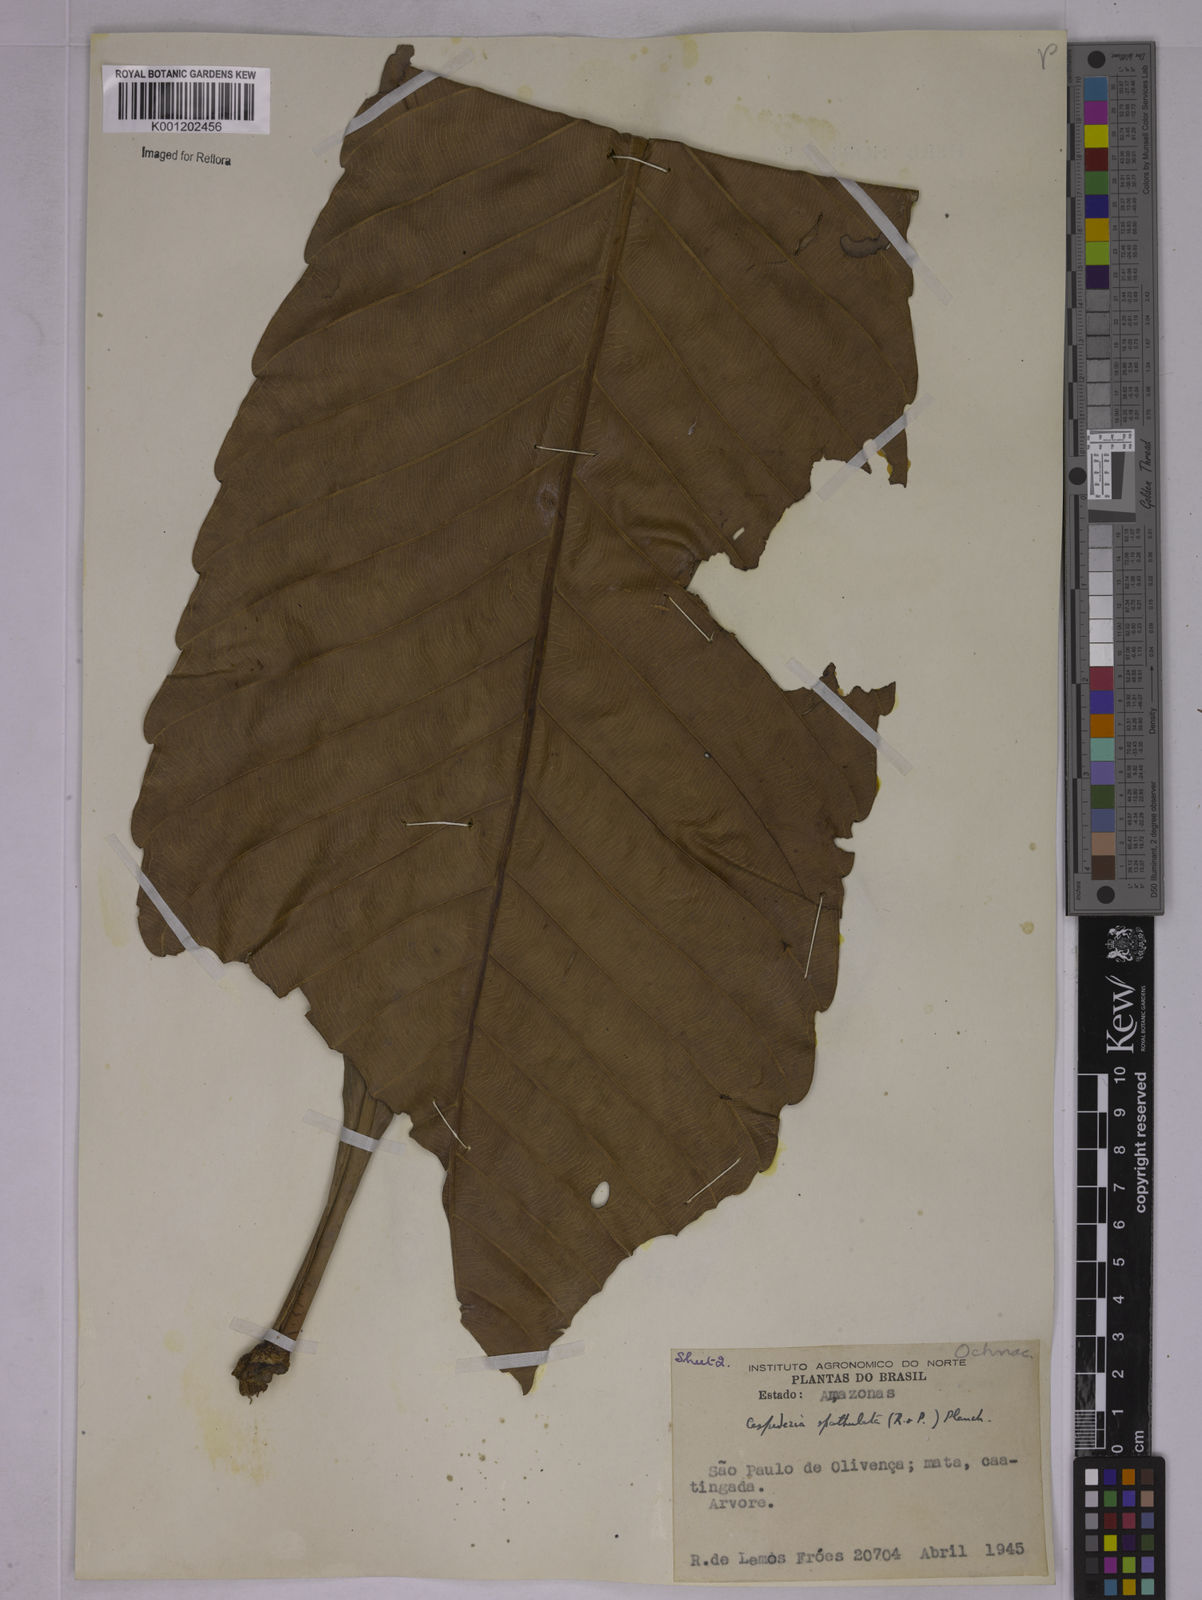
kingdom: Plantae
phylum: Tracheophyta
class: Magnoliopsida
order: Malpighiales
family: Ochnaceae
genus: Cespedesia
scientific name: Cespedesia spathulata
